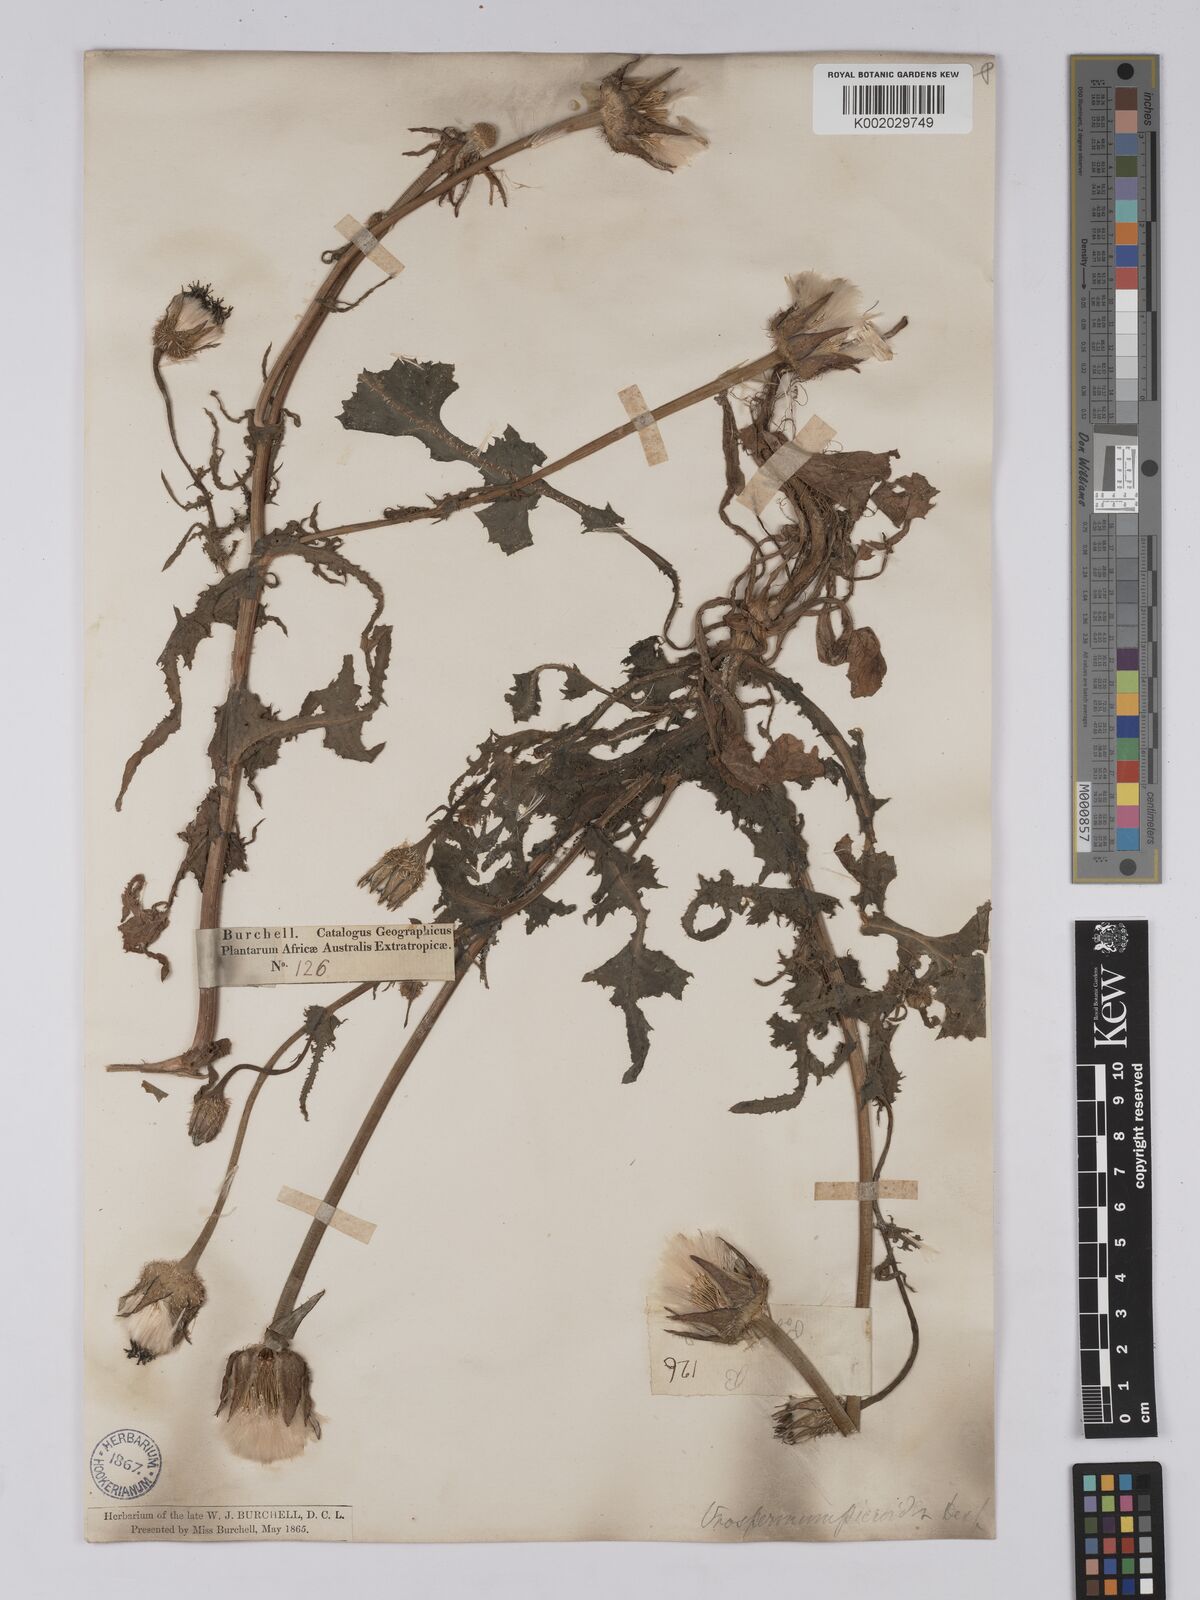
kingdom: Plantae
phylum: Tracheophyta
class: Magnoliopsida
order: Asterales
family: Asteraceae
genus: Urospermum
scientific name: Urospermum picroides
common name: False hawkbit
